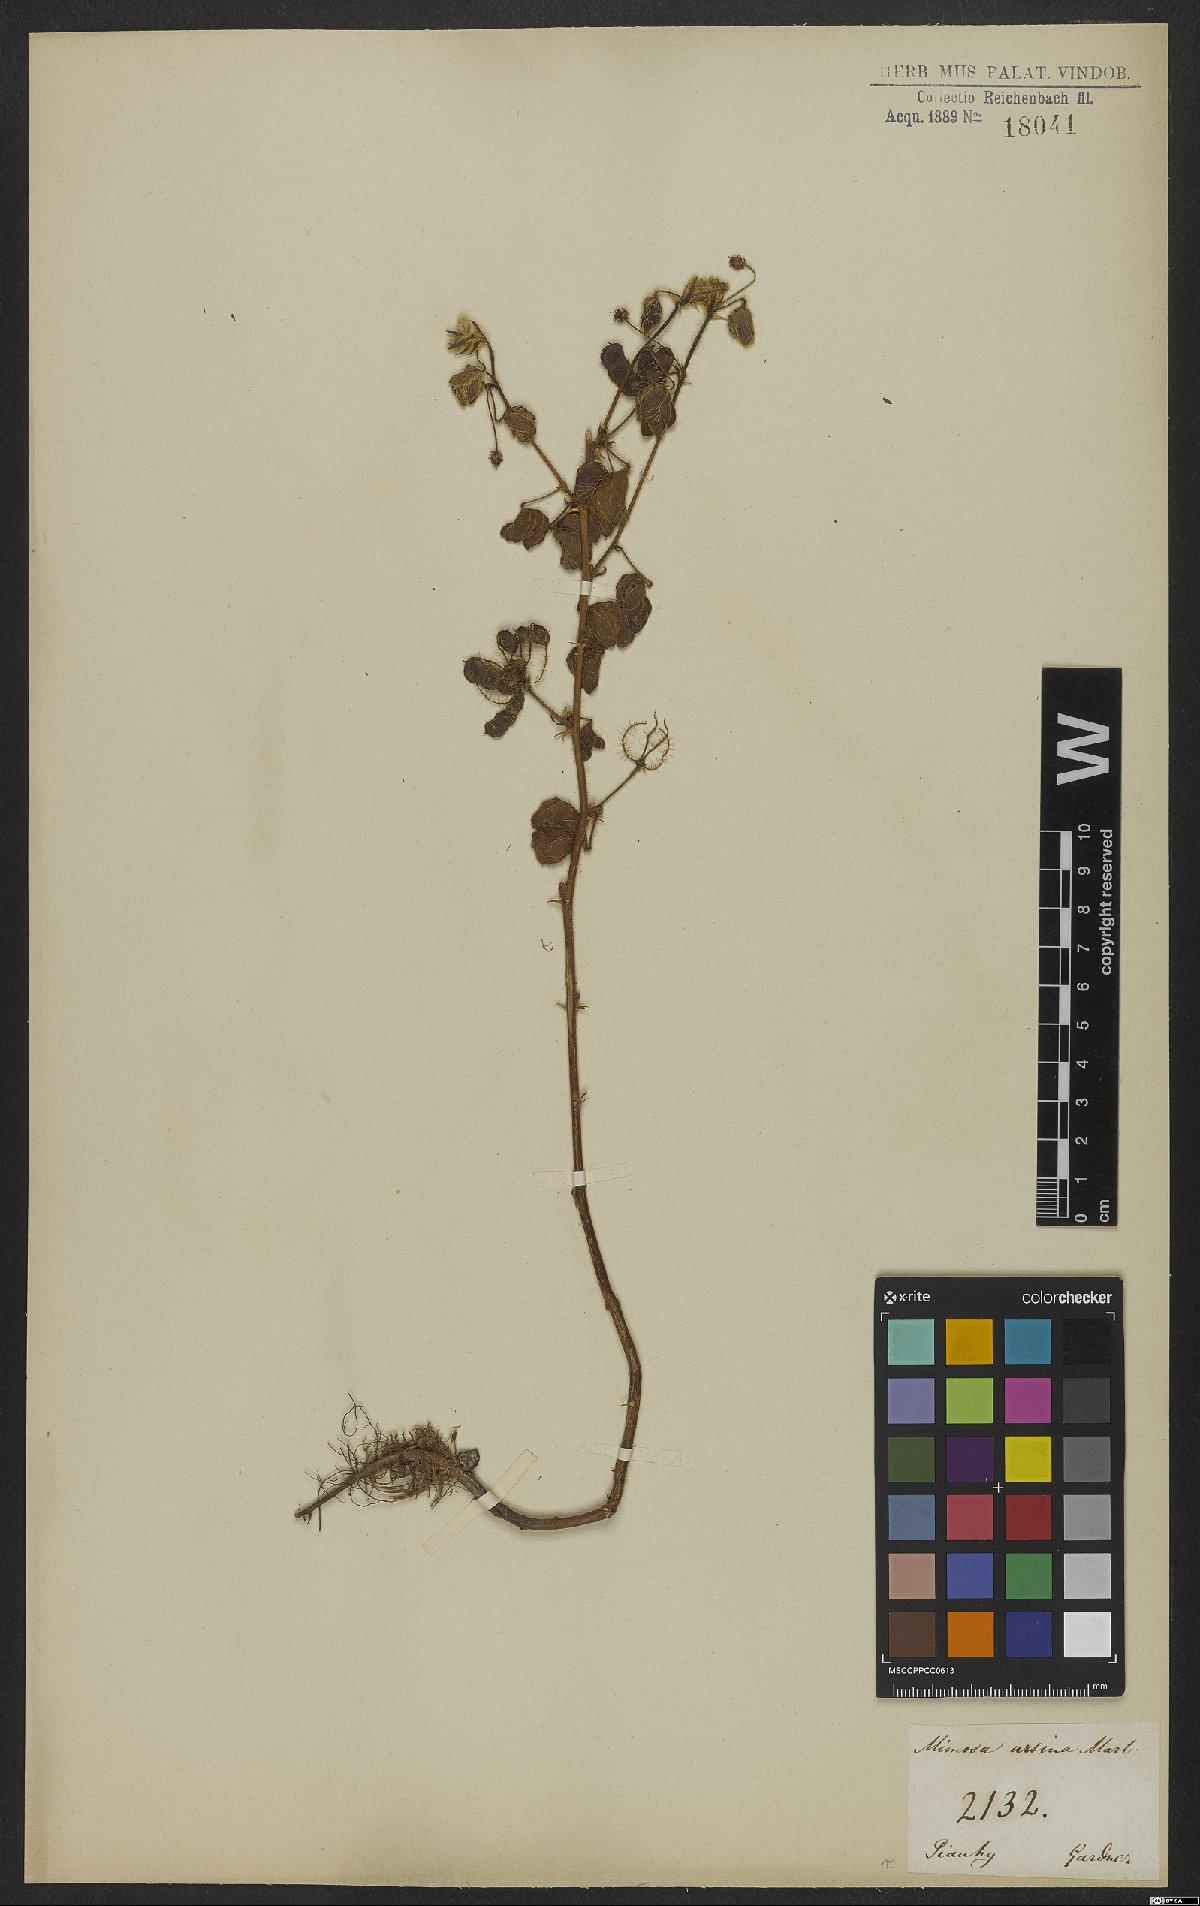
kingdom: Plantae
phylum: Tracheophyta
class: Magnoliopsida
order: Fabales
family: Fabaceae
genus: Mimosa
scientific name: Mimosa ursina
